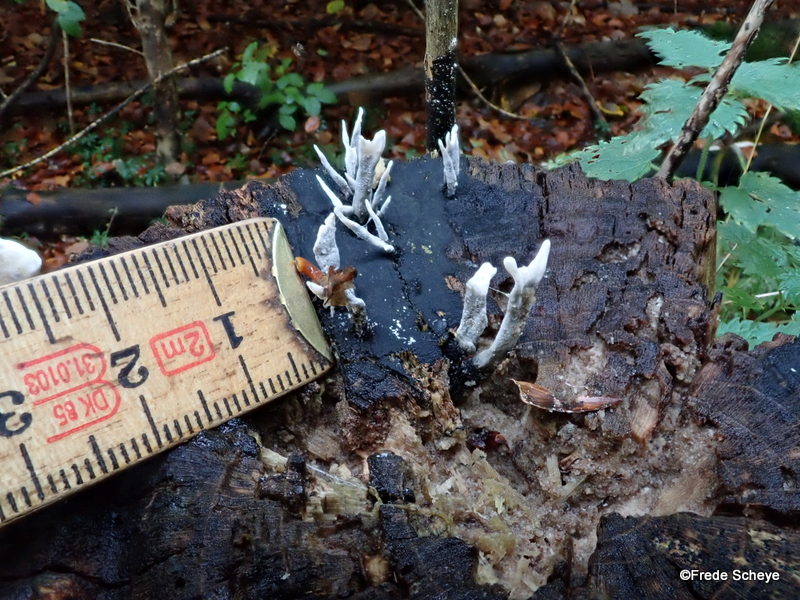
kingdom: Fungi
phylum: Ascomycota
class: Sordariomycetes
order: Xylariales
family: Xylariaceae
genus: Xylaria
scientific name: Xylaria hypoxylon
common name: grenet stødsvamp
